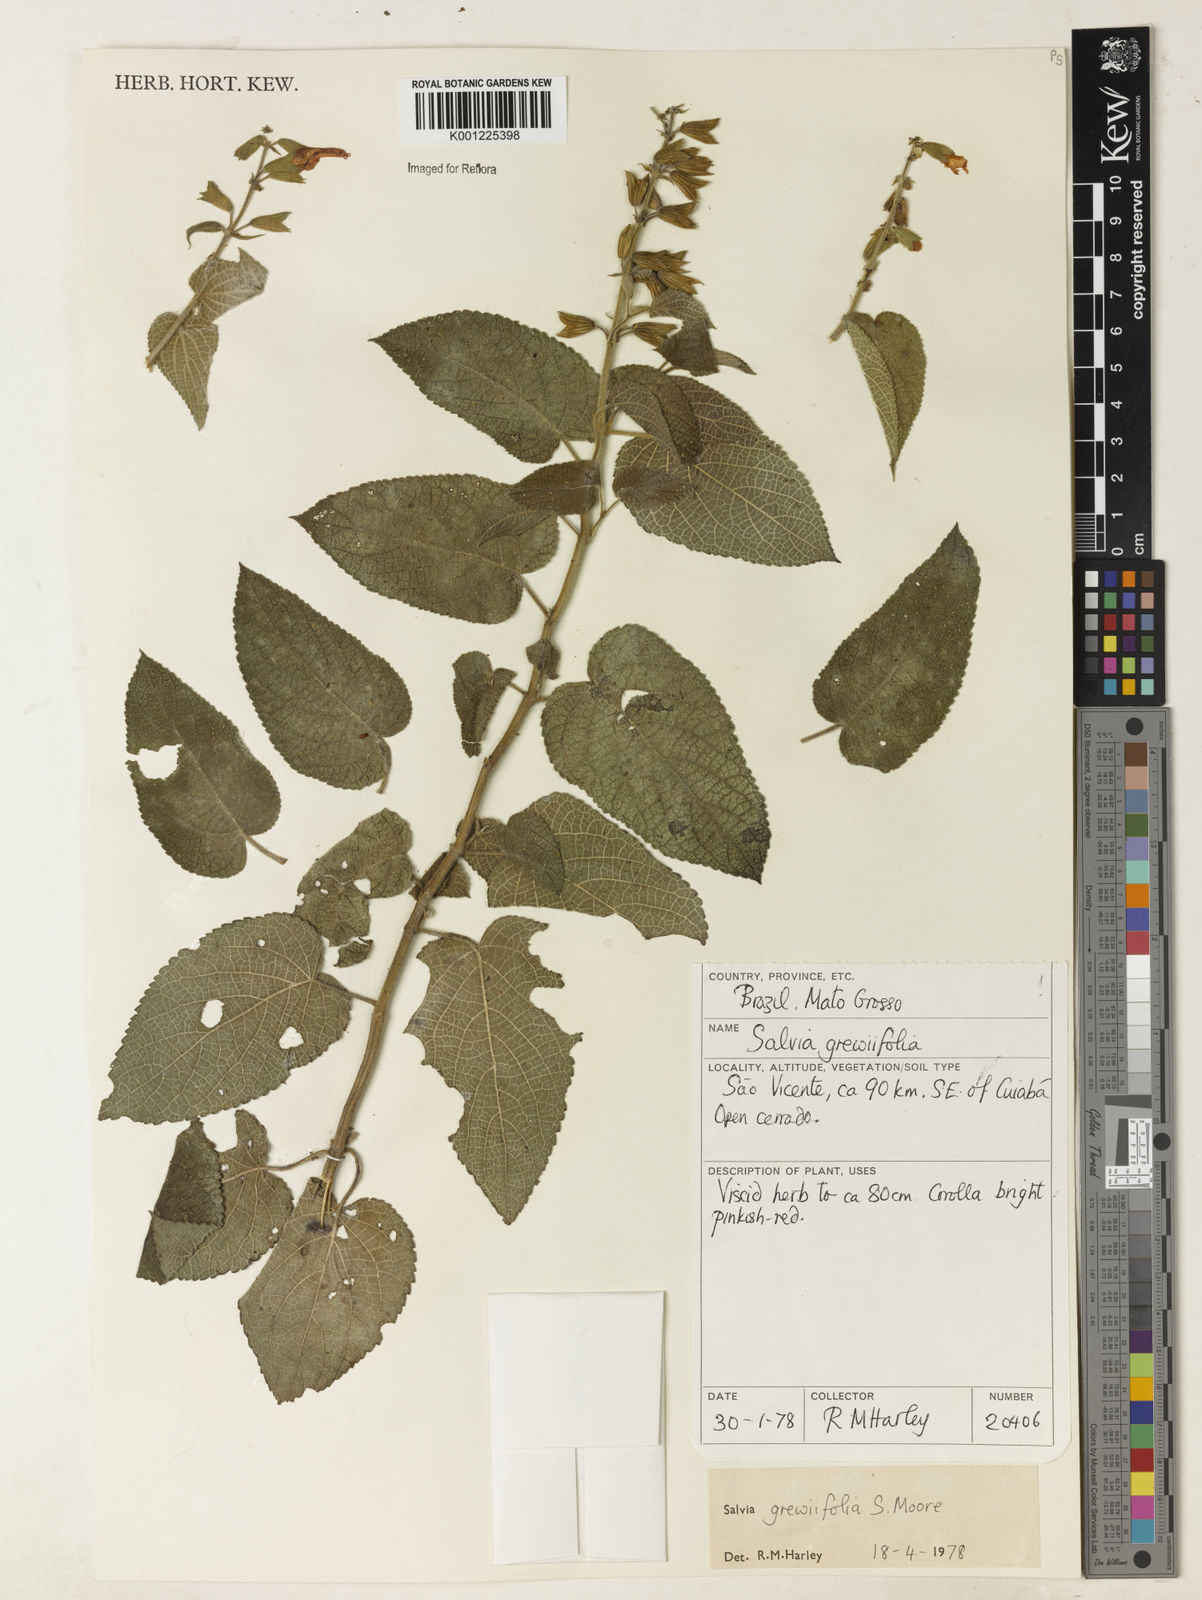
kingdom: Plantae
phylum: Tracheophyta
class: Magnoliopsida
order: Lamiales
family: Lamiaceae
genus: Salvia
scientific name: Salvia grewiifolia
